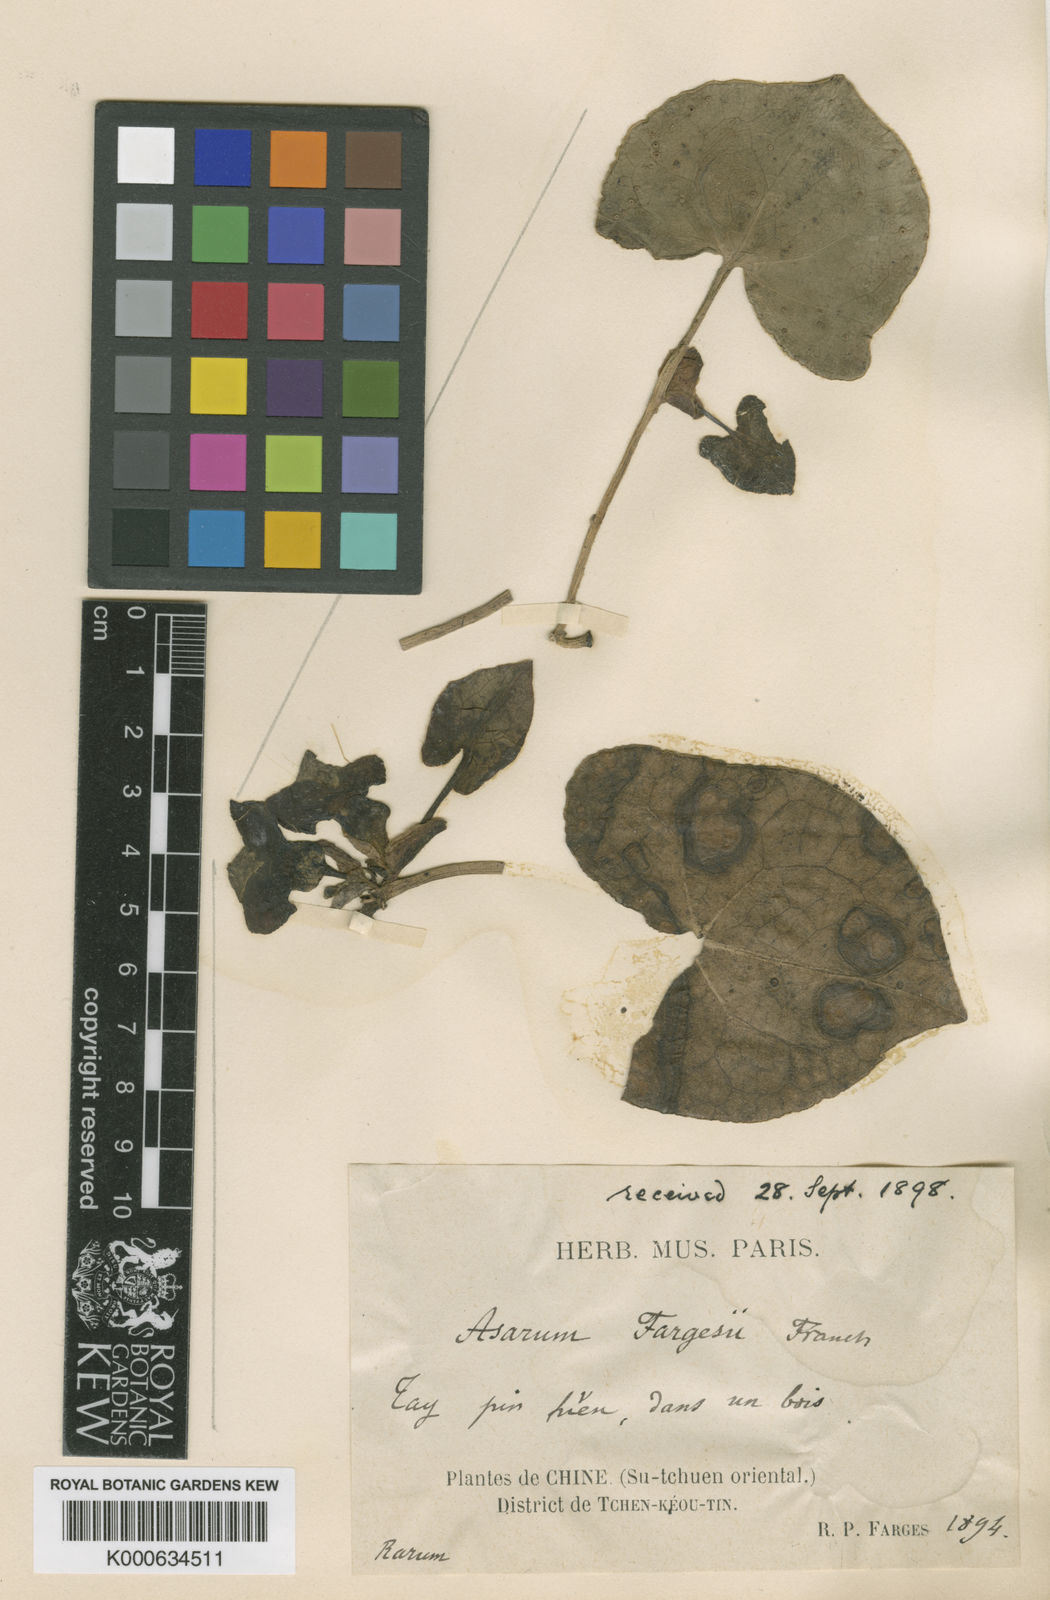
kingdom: Plantae
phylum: Tracheophyta
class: Magnoliopsida
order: Piperales
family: Aristolochiaceae
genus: Asarum
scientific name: Asarum chinense
